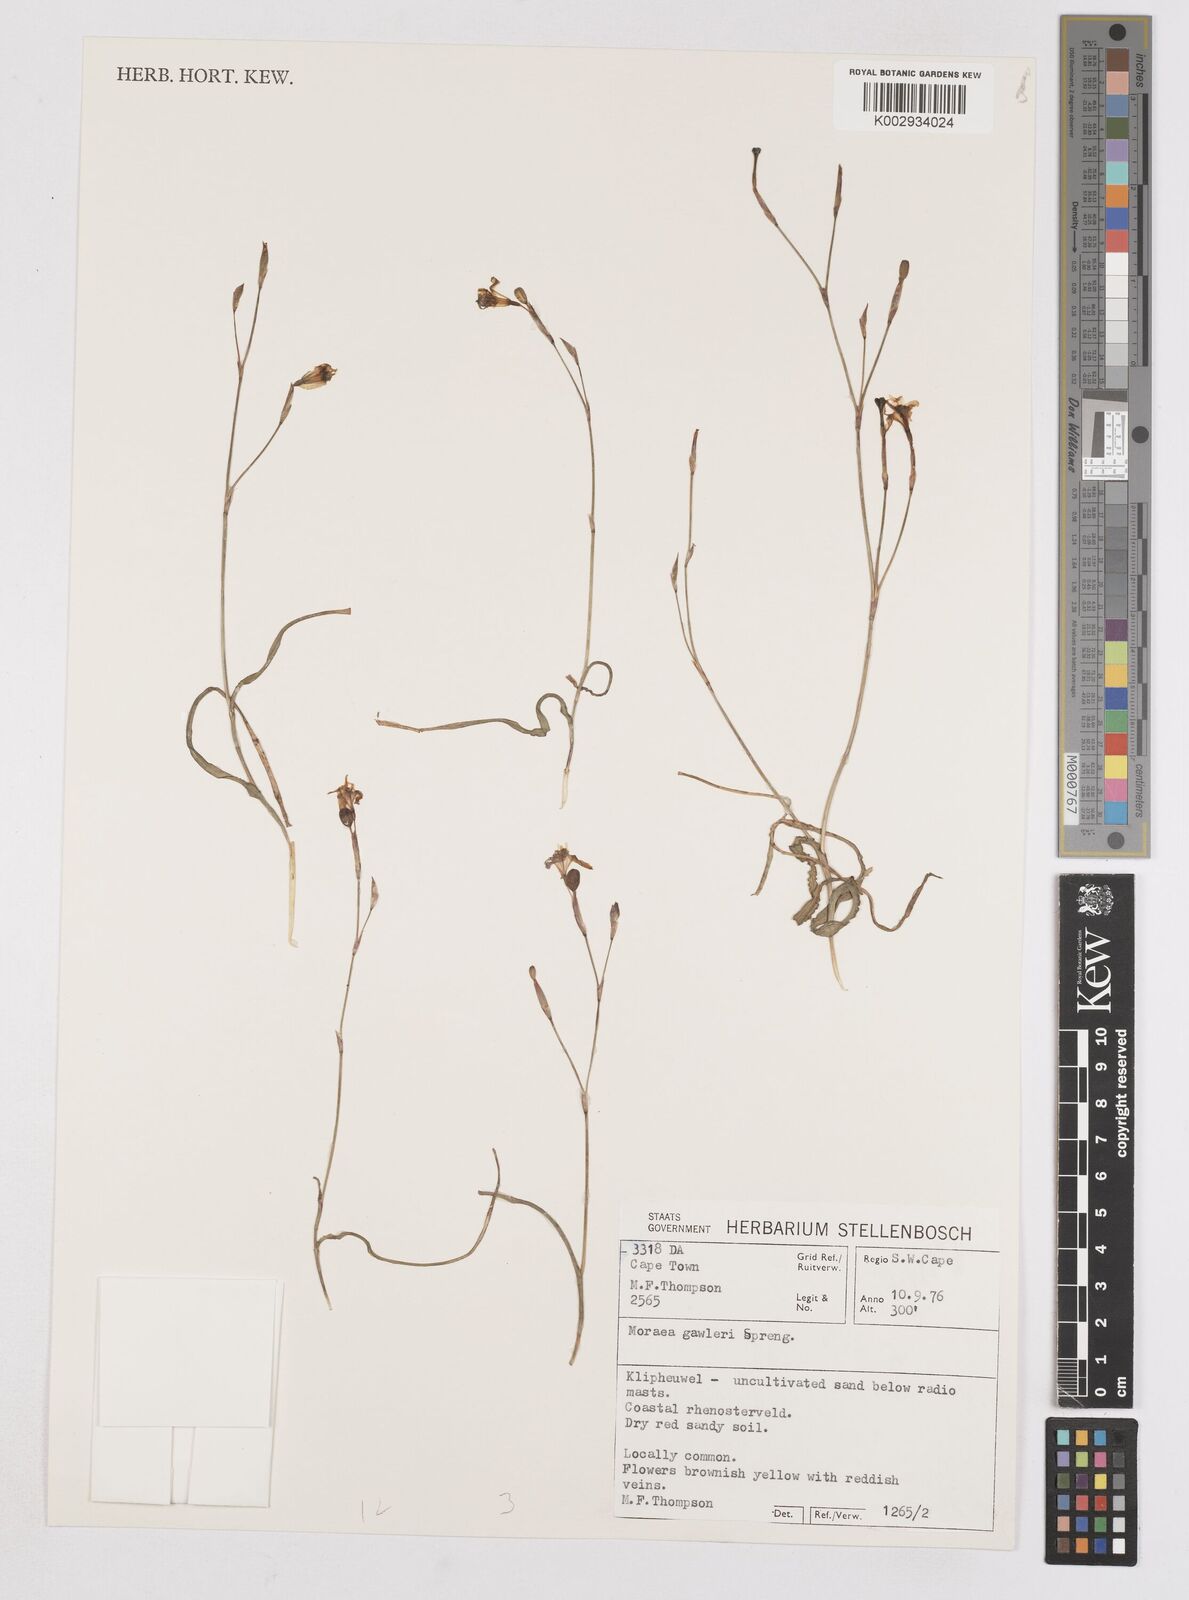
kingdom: Plantae
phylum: Tracheophyta
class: Liliopsida
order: Asparagales
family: Iridaceae
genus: Moraea
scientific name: Moraea gawleri
